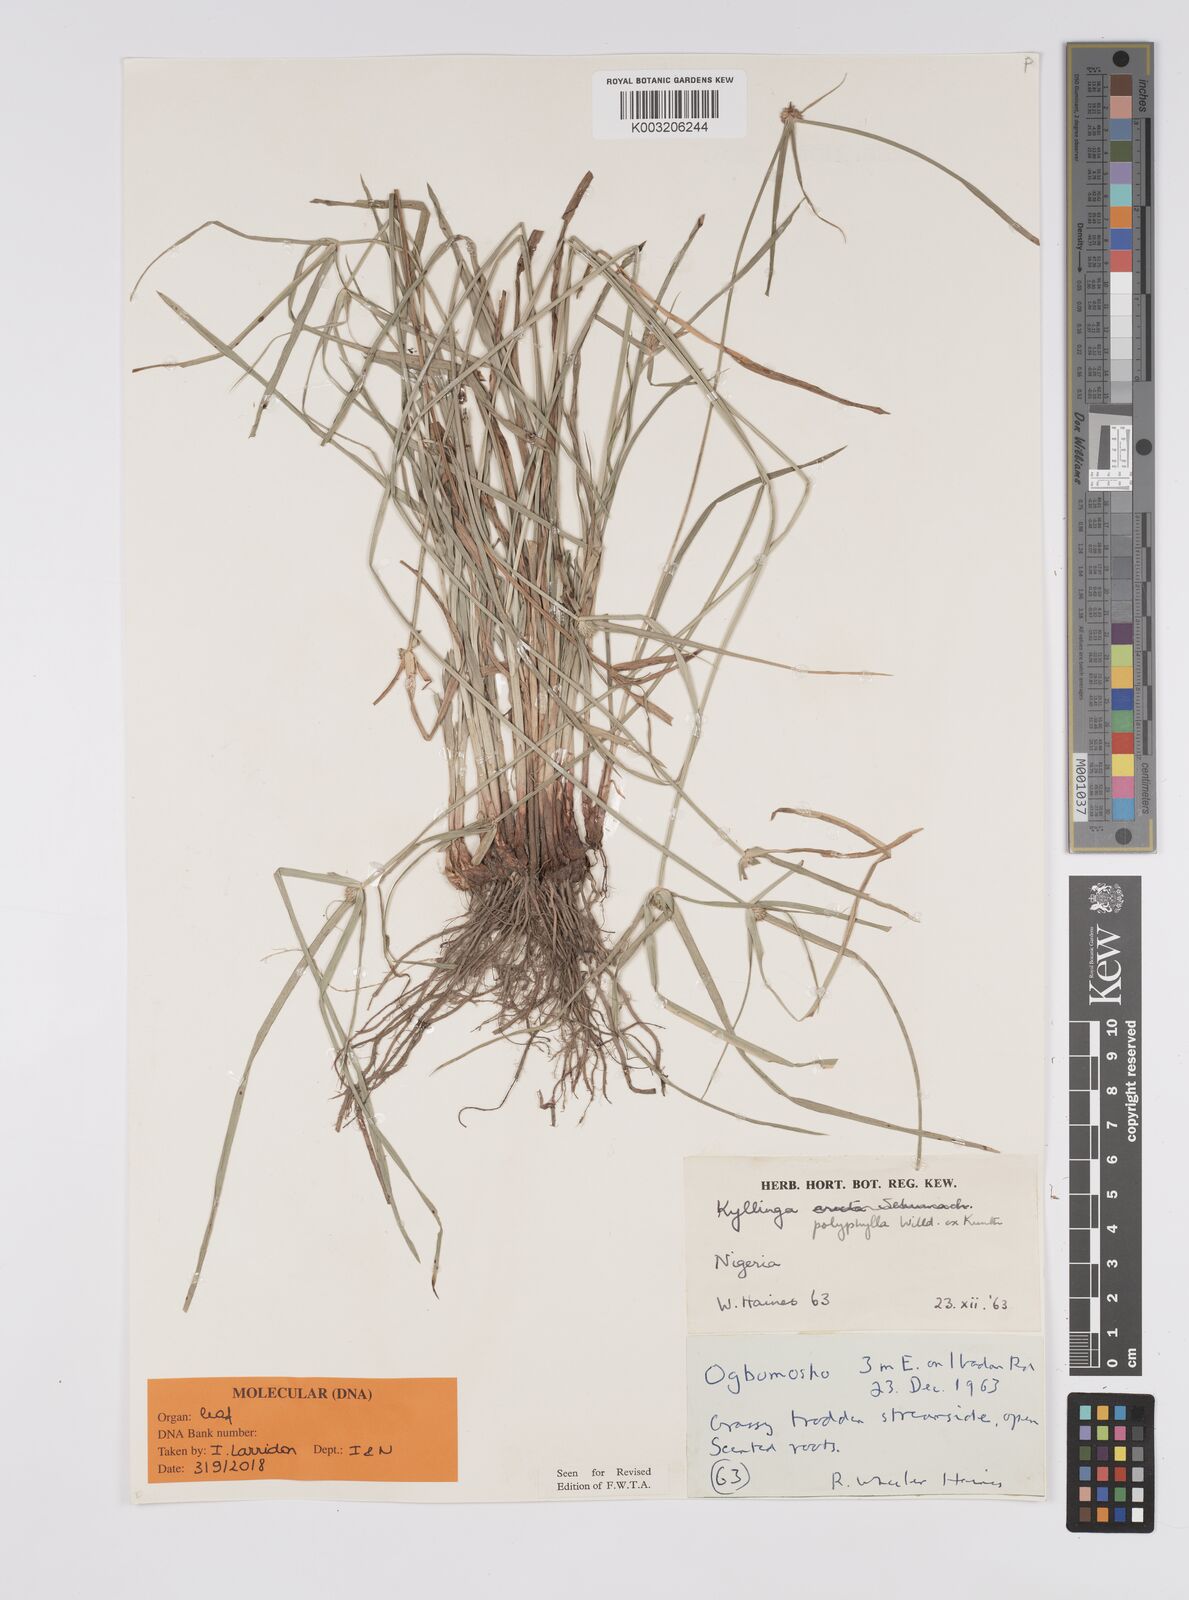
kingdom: Plantae
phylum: Tracheophyta
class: Liliopsida
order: Poales
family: Cyperaceae
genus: Cyperus
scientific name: Cyperus
